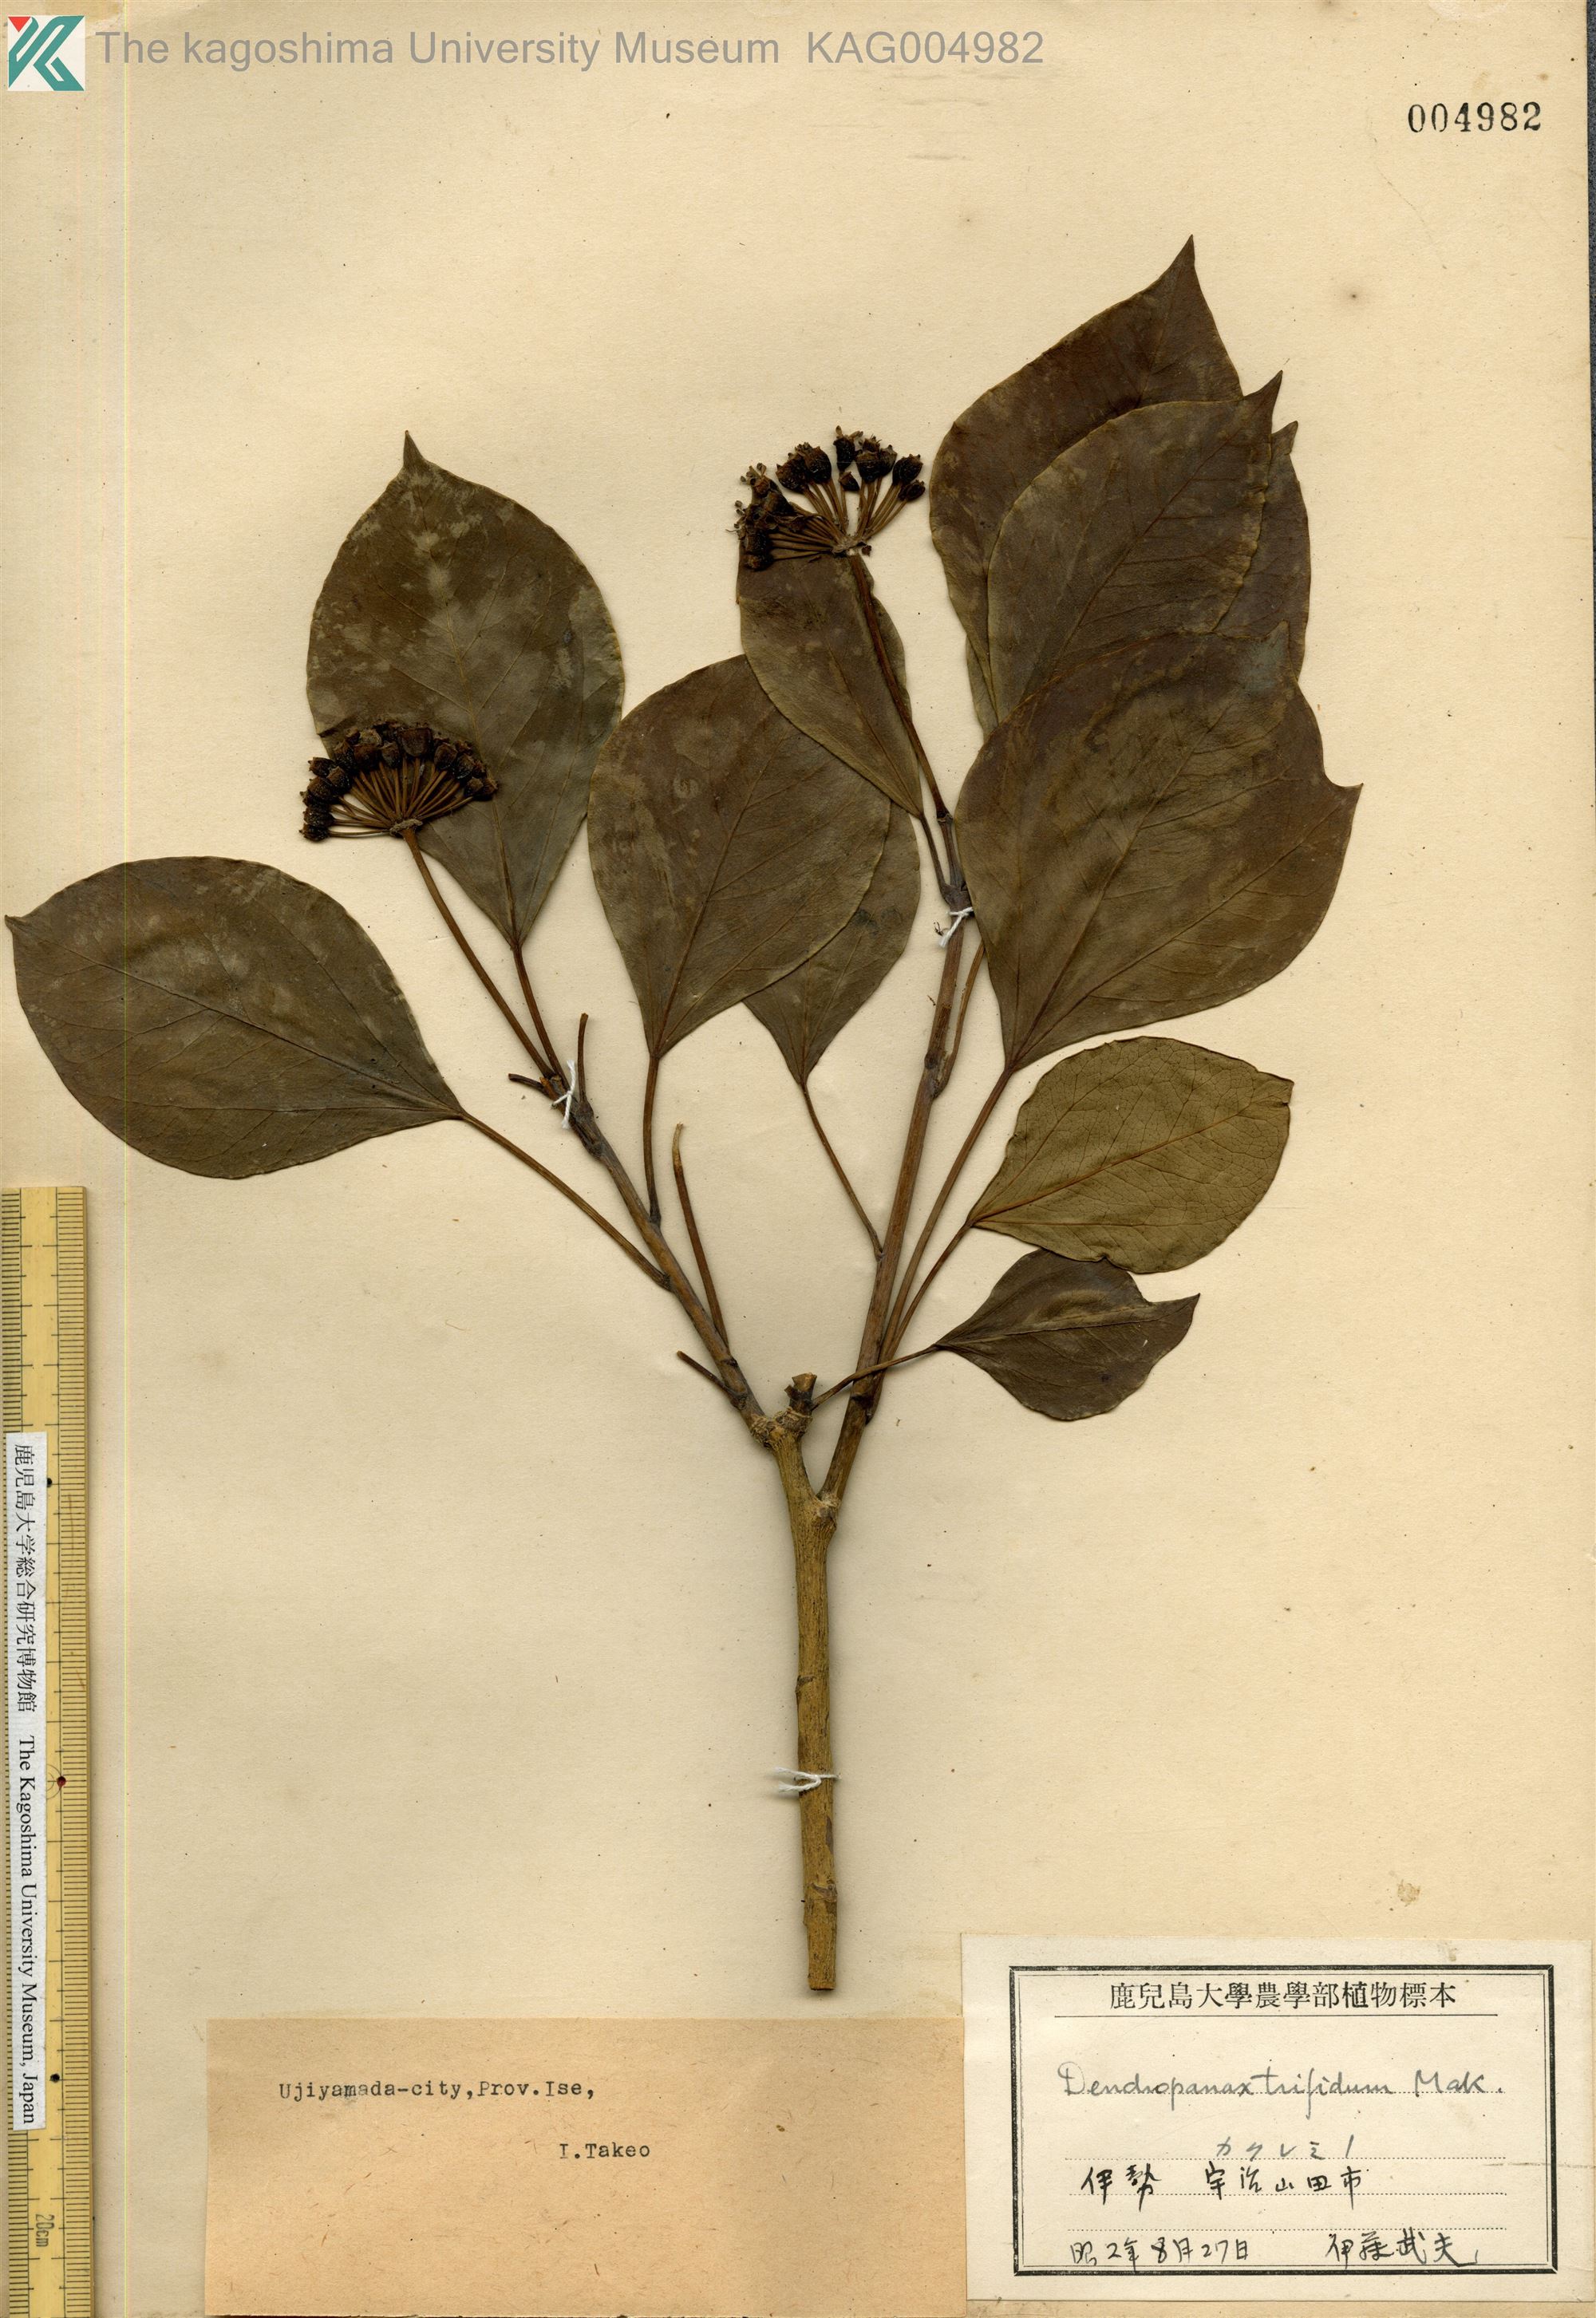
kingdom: Plantae
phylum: Tracheophyta
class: Magnoliopsida
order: Apiales
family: Araliaceae
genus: Dendropanax
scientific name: Dendropanax trifidus
